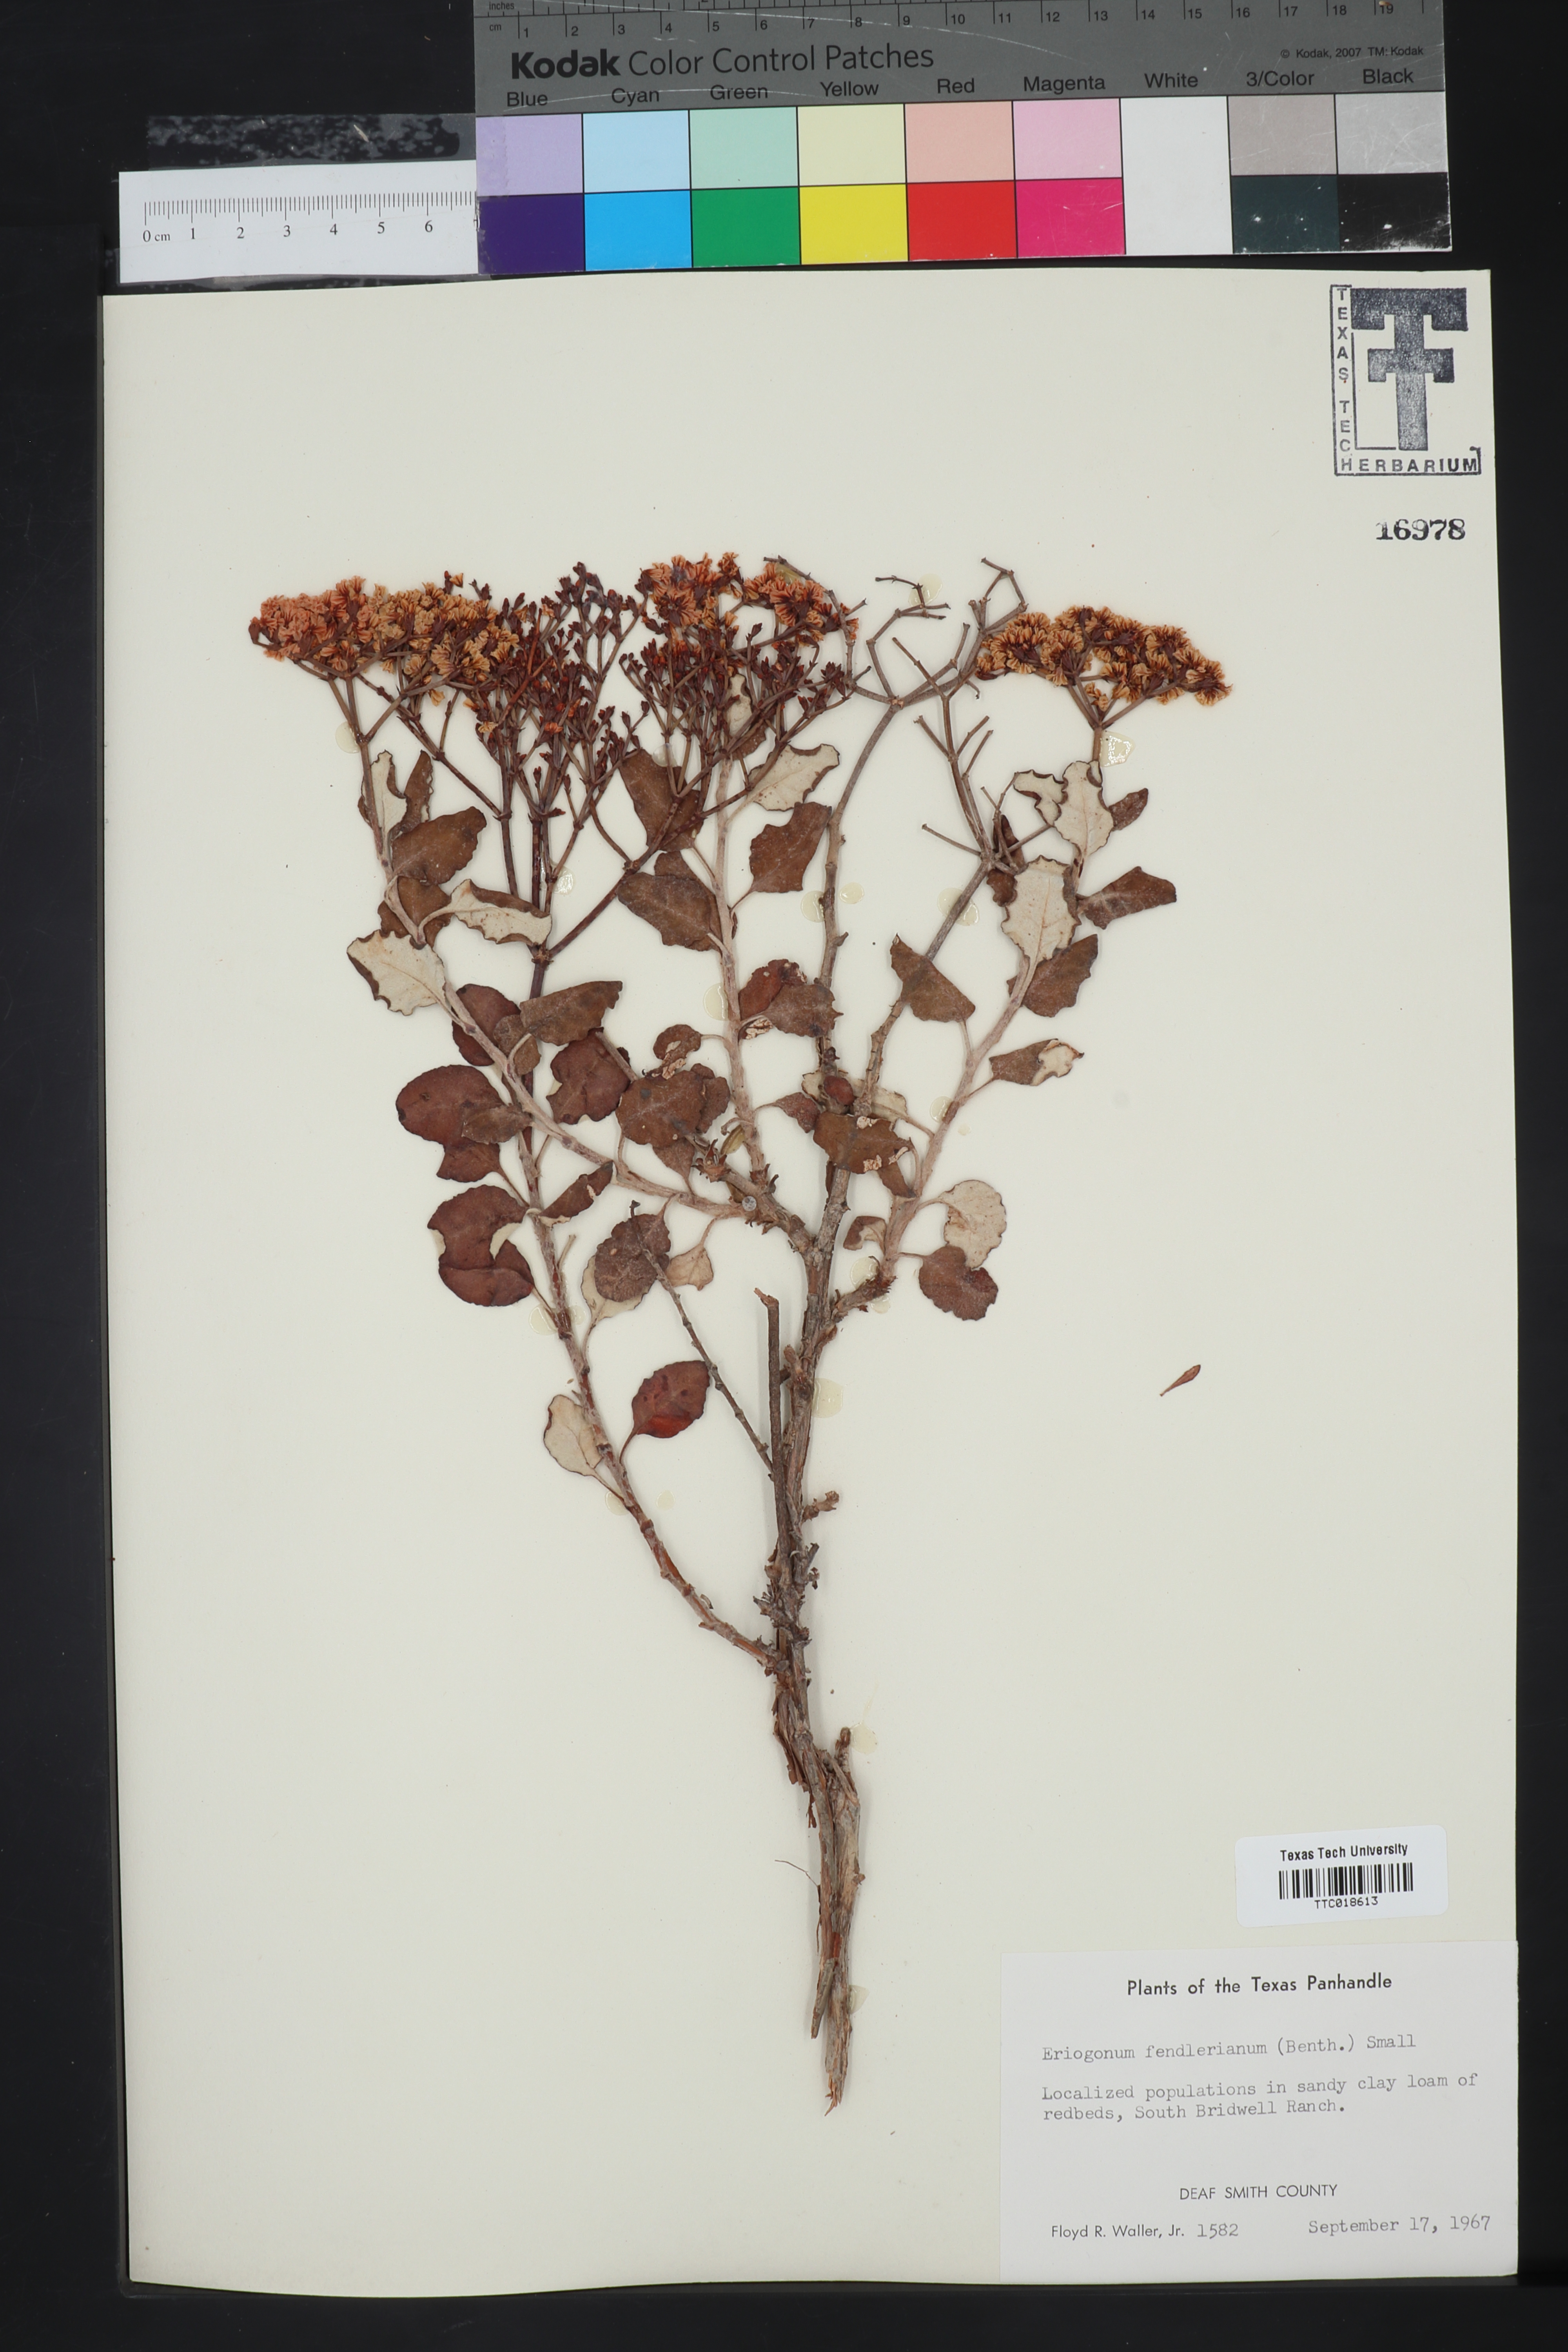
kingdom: Plantae
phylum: Tracheophyta
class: Magnoliopsida
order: Caryophyllales
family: Polygonaceae
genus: Eriogonum
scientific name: Eriogonum lonchophyllum
